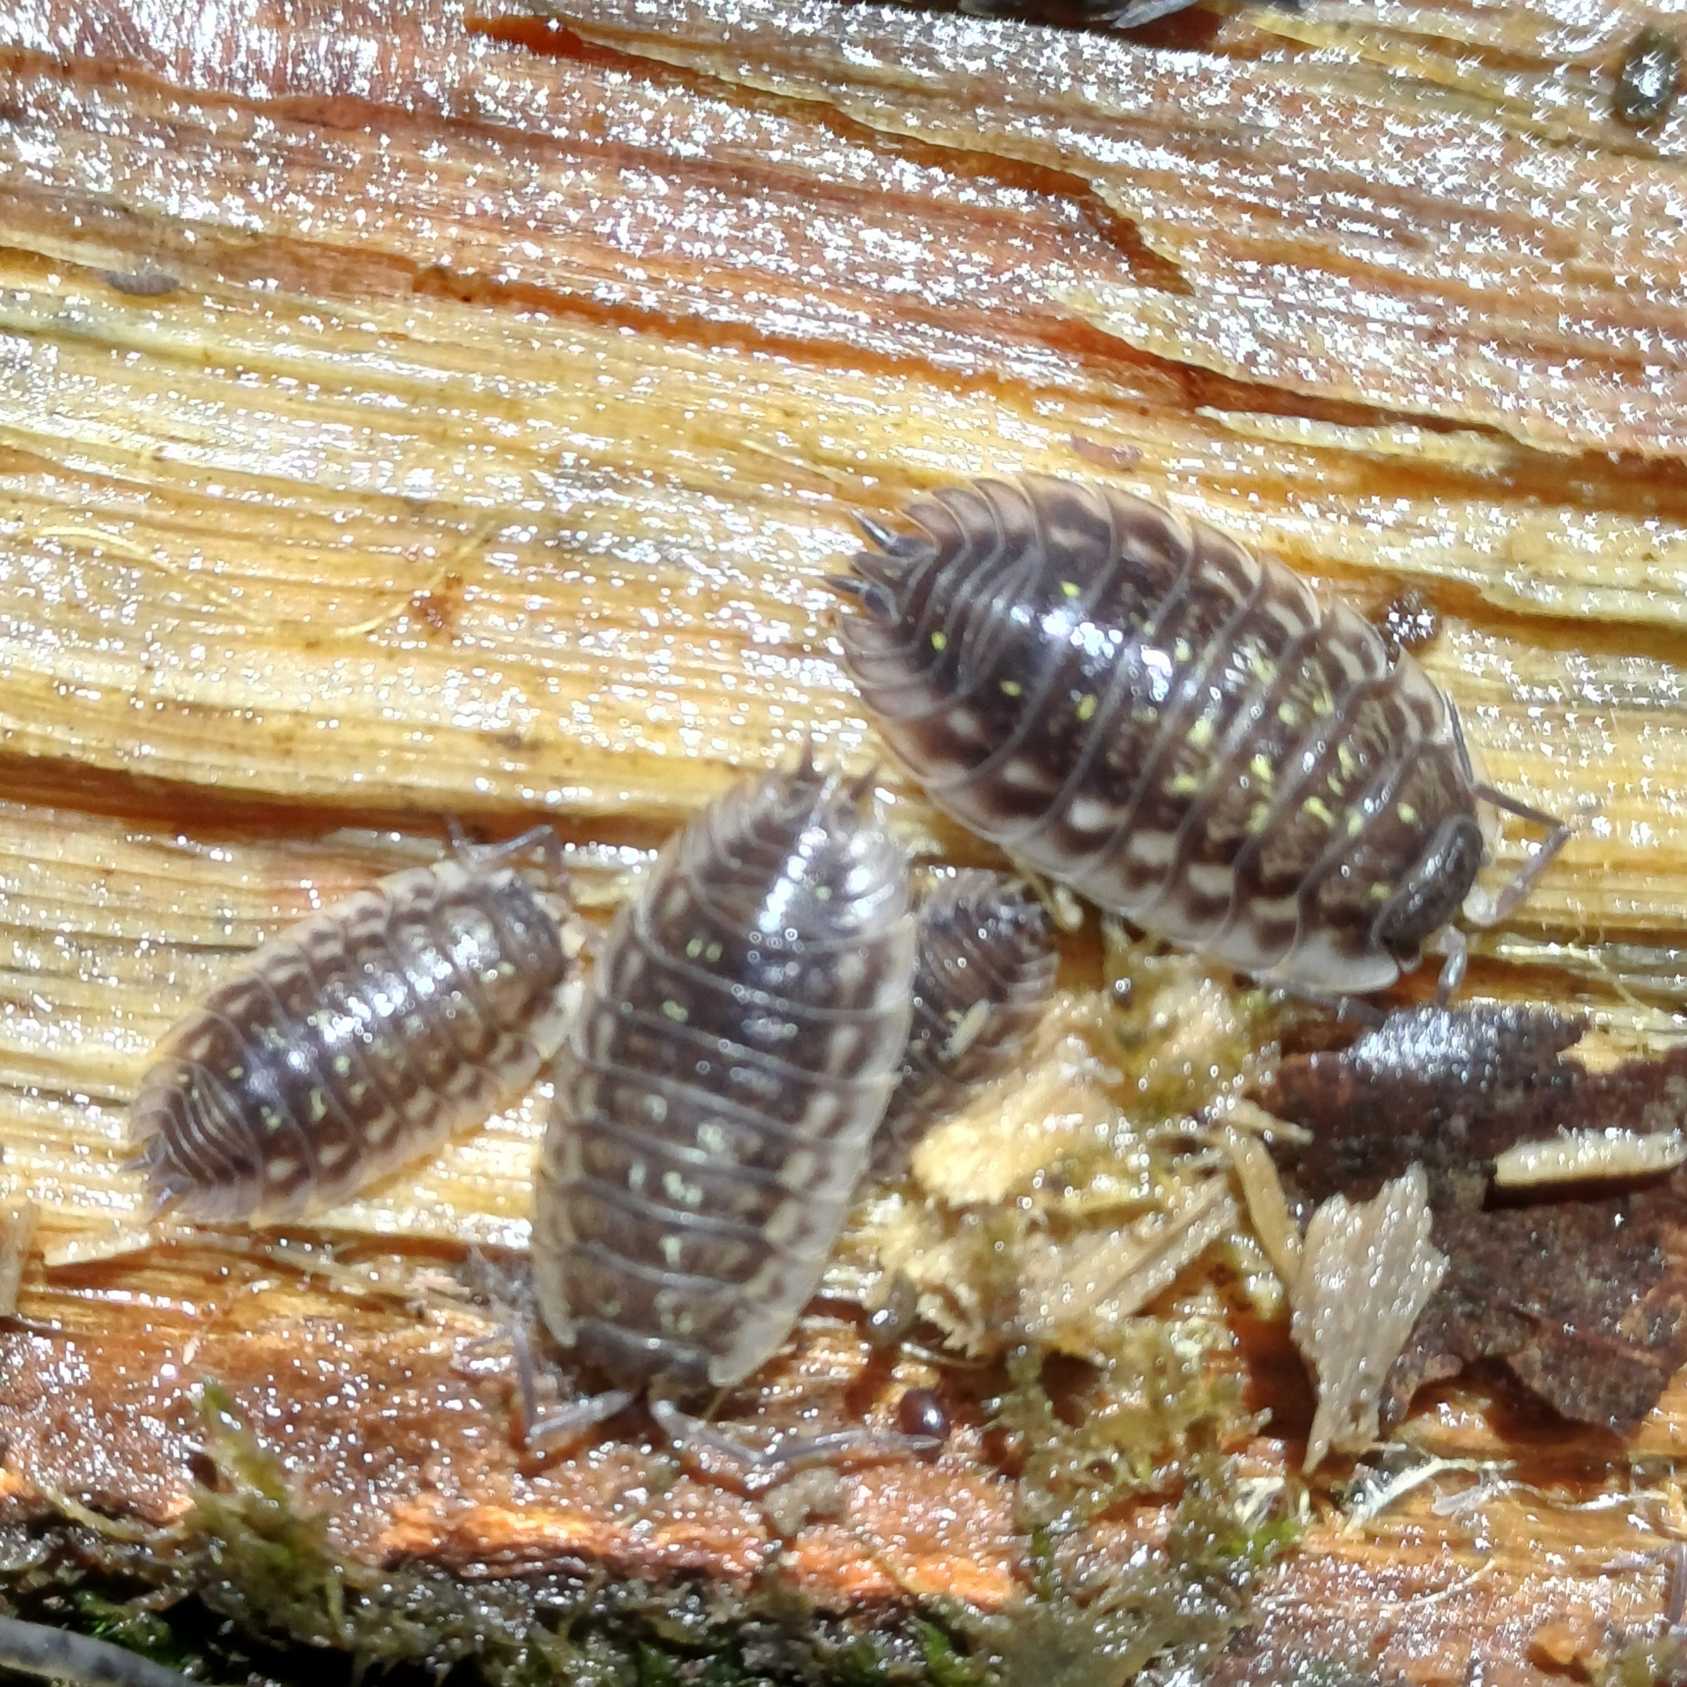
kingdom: Animalia
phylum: Arthropoda
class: Malacostraca
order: Isopoda
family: Oniscidae
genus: Oniscus
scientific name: Oniscus asellus
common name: Glat bænkebider
